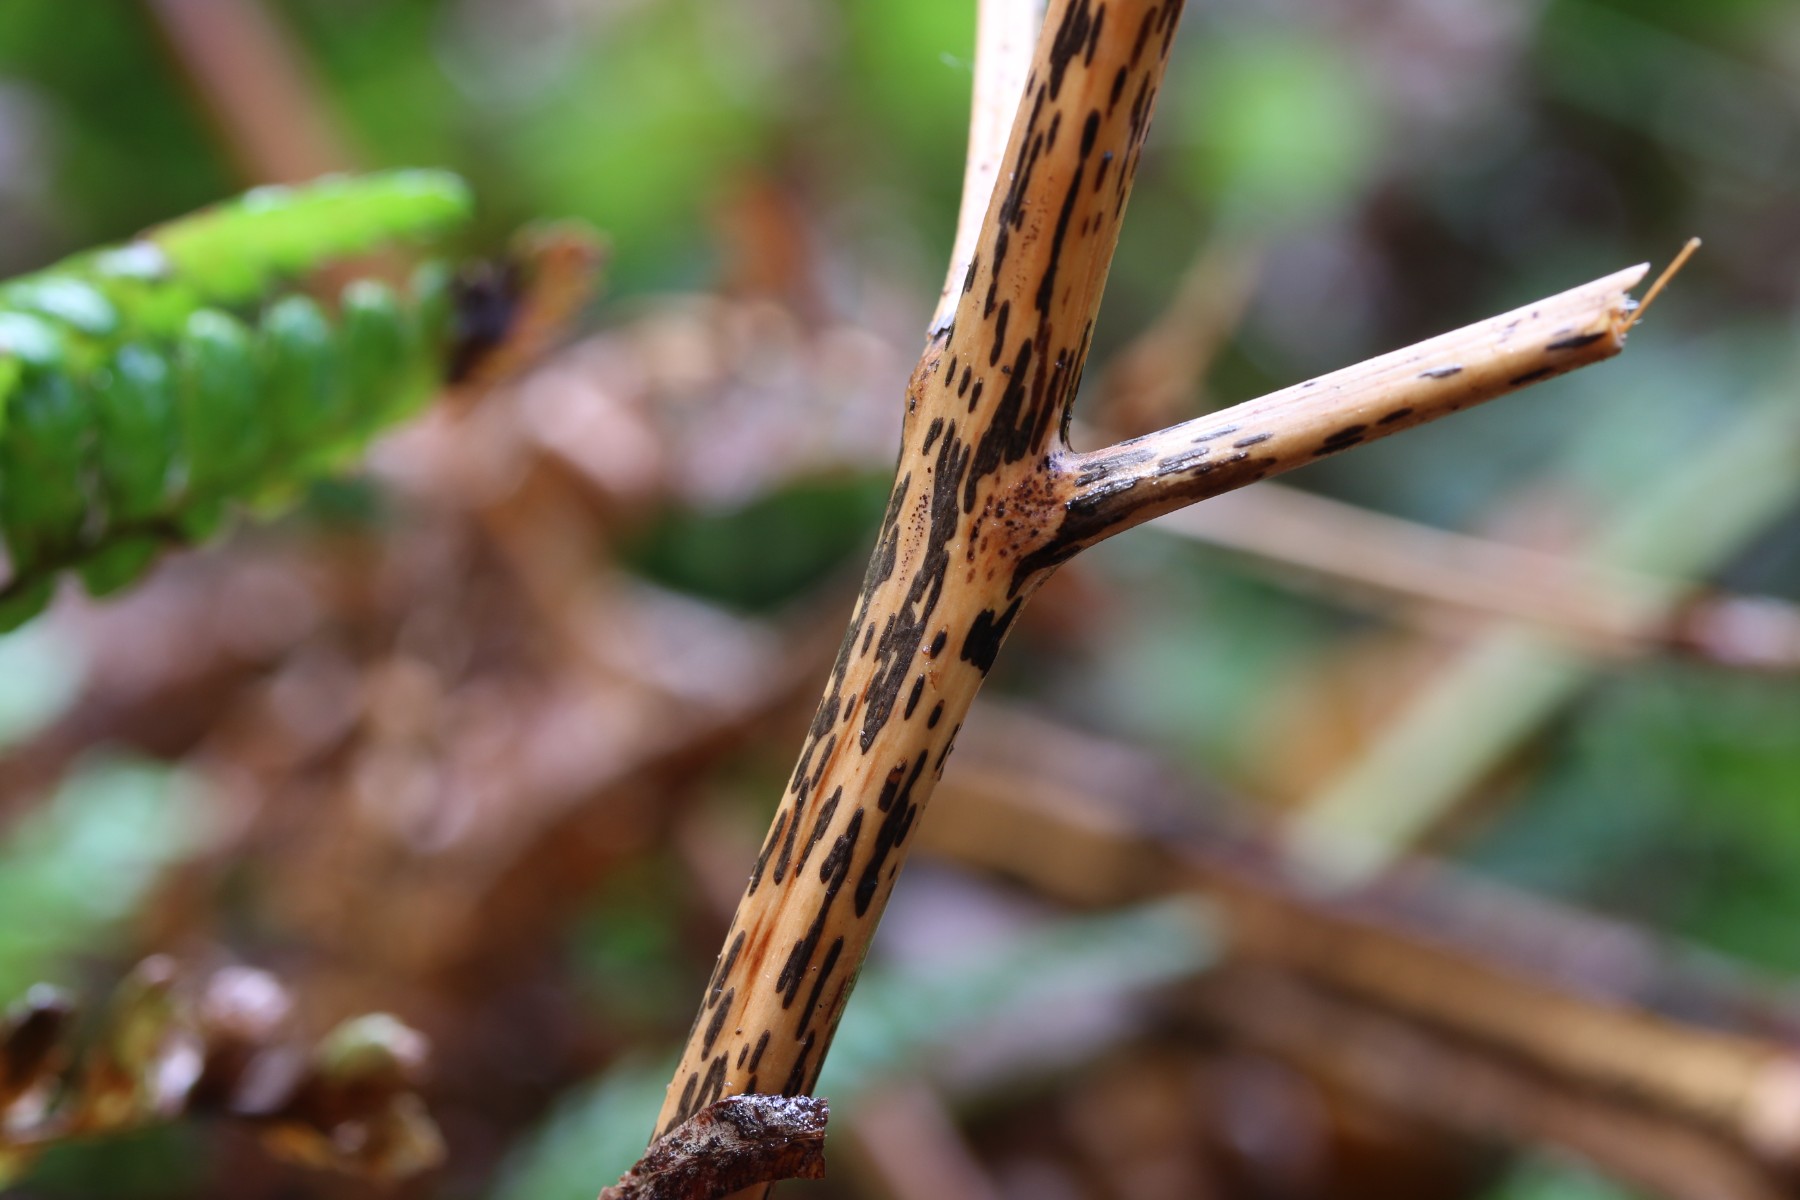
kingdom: Fungi
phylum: Ascomycota
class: Dothideomycetes
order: Pleosporales
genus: Rhopographus
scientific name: Rhopographus filicinus
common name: Bracken map
